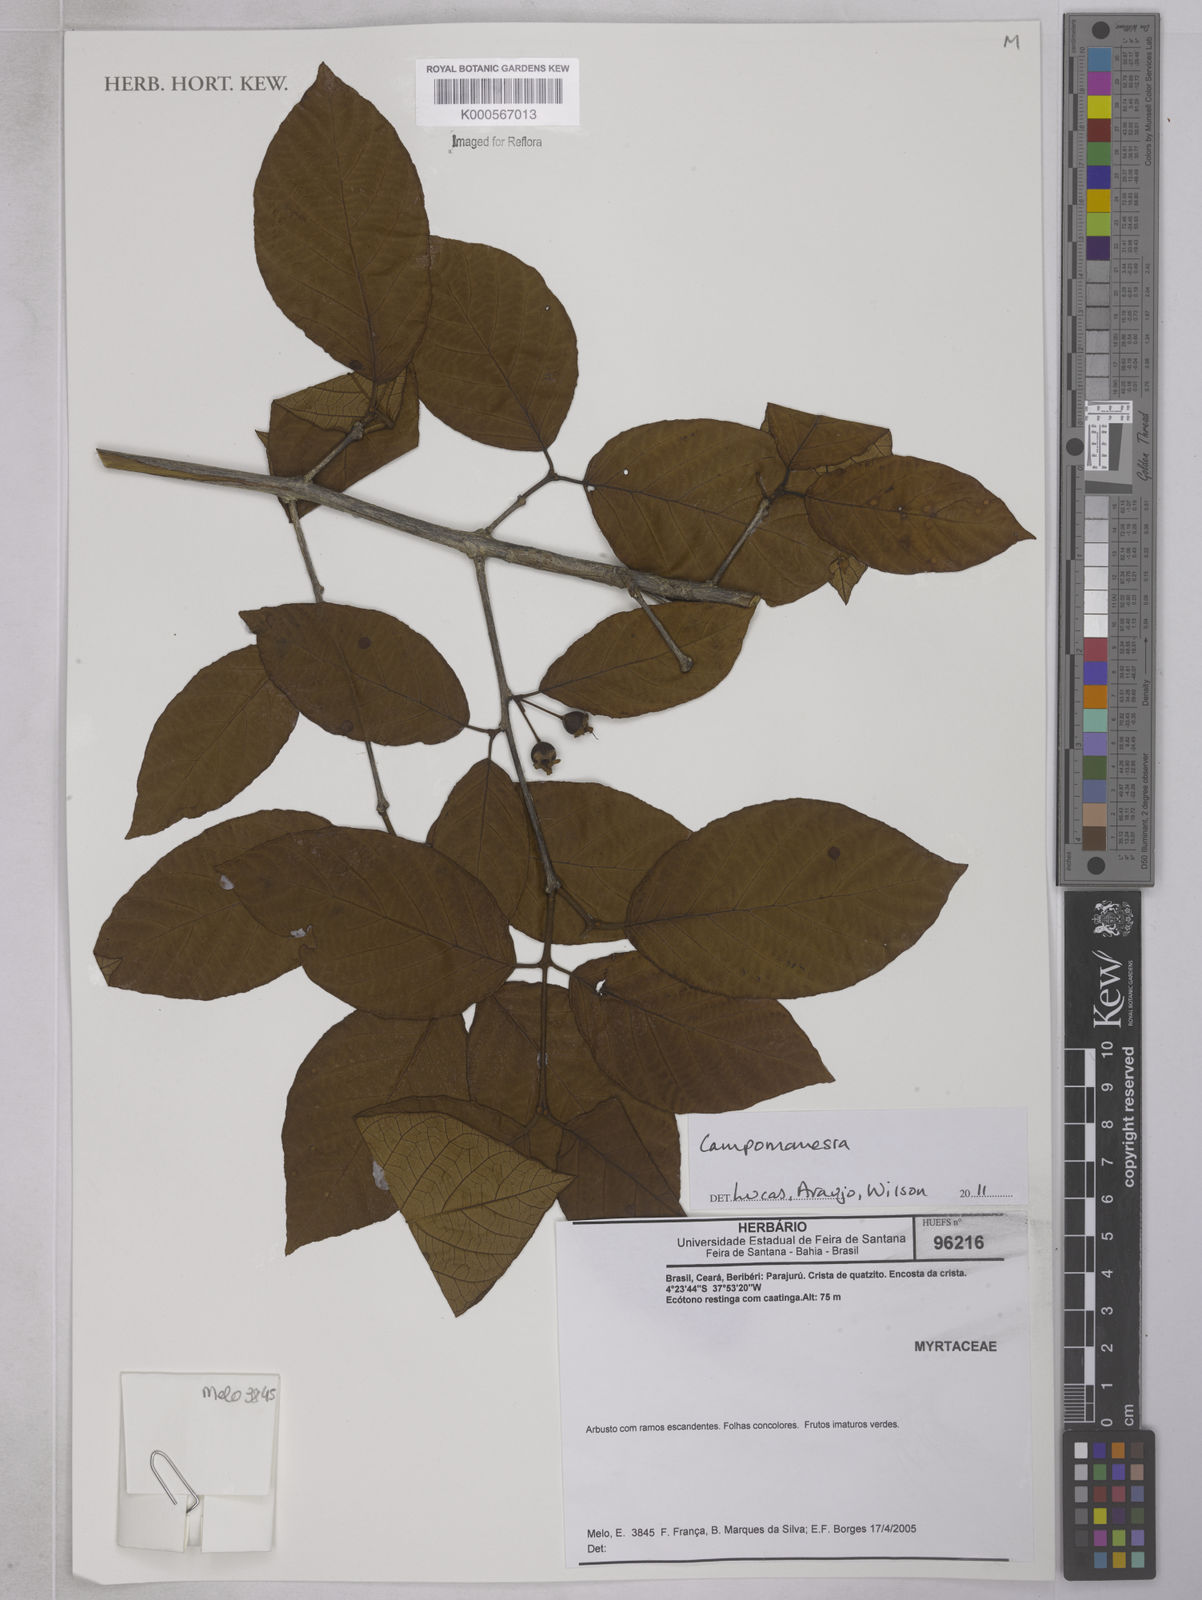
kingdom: Plantae
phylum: Tracheophyta
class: Magnoliopsida
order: Myrtales
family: Myrtaceae
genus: Campomanesia
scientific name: Campomanesia
